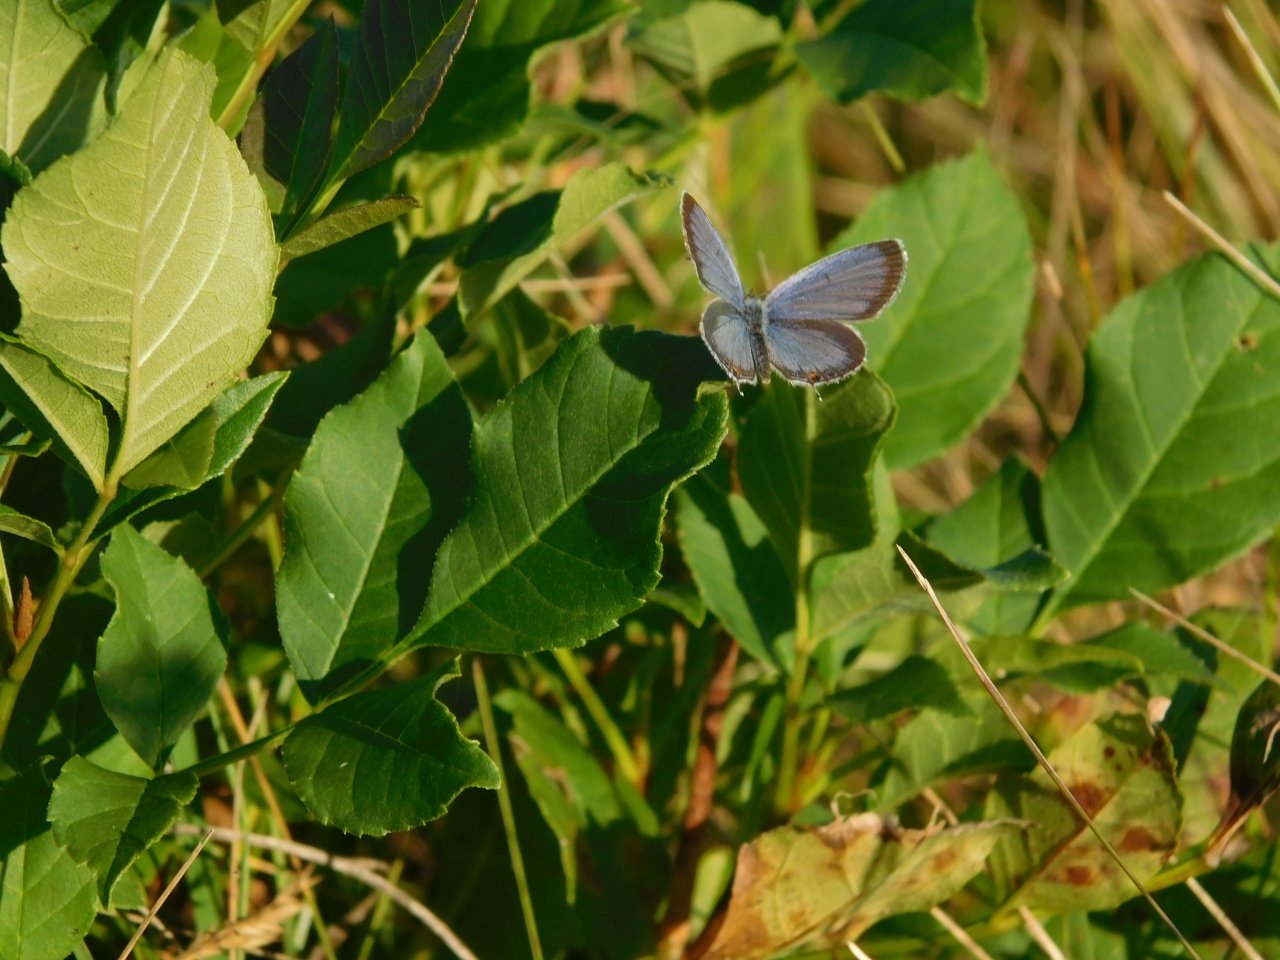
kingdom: Animalia
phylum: Arthropoda
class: Insecta
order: Lepidoptera
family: Lycaenidae
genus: Elkalyce
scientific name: Elkalyce comyntas
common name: Eastern Tailed-Blue
